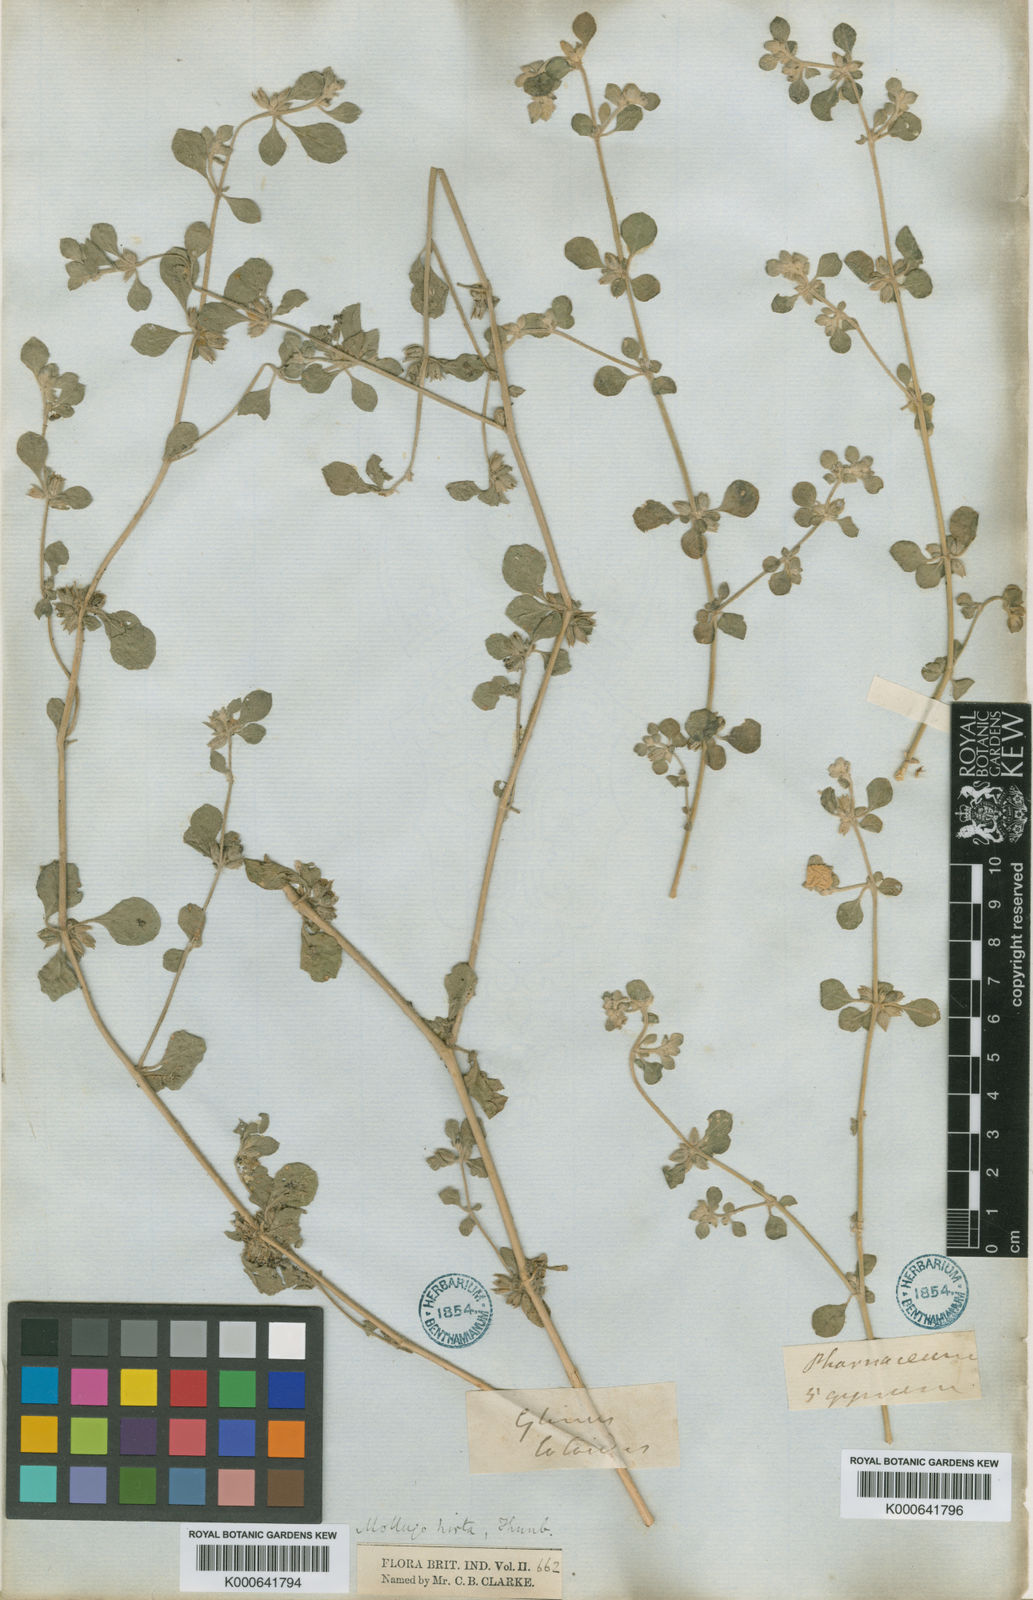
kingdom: Plantae
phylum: Tracheophyta
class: Magnoliopsida
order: Caryophyllales
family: Molluginaceae
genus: Glinus
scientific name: Glinus lotoides
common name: Lotus sweetjuice
